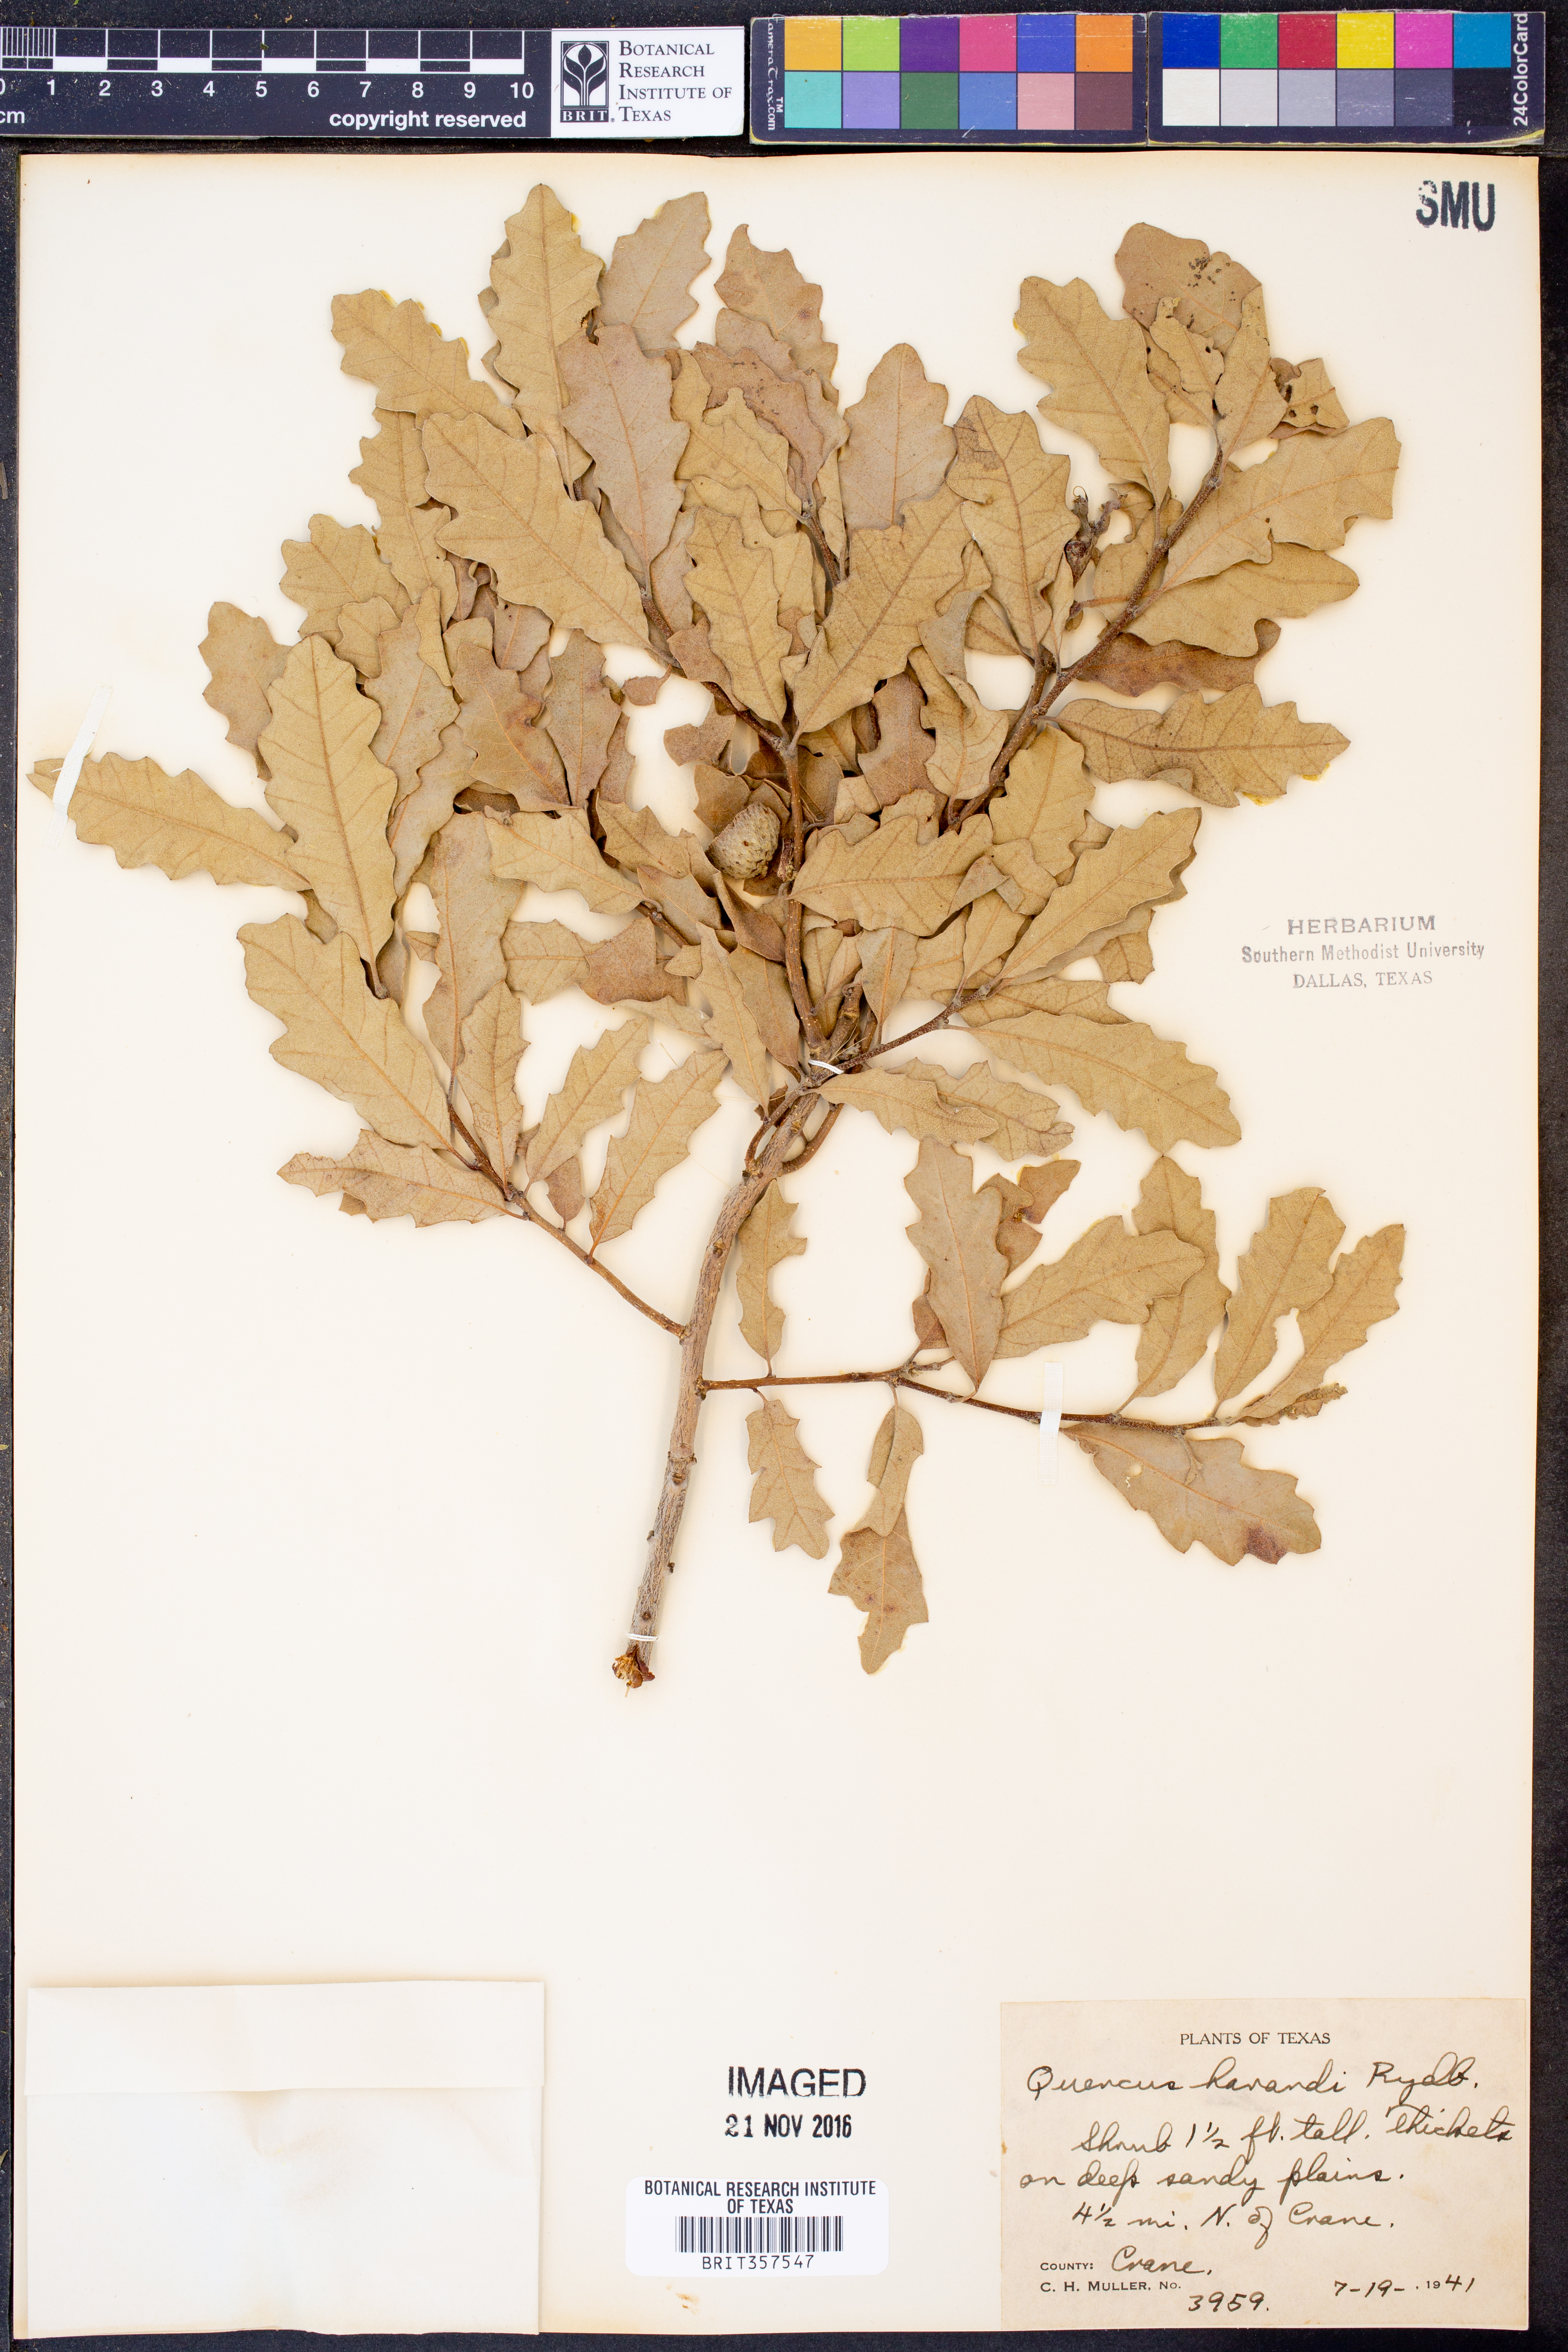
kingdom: Plantae
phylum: Tracheophyta
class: Magnoliopsida
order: Fagales
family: Fagaceae
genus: Quercus
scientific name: Quercus havardii
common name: Shinnery oak
